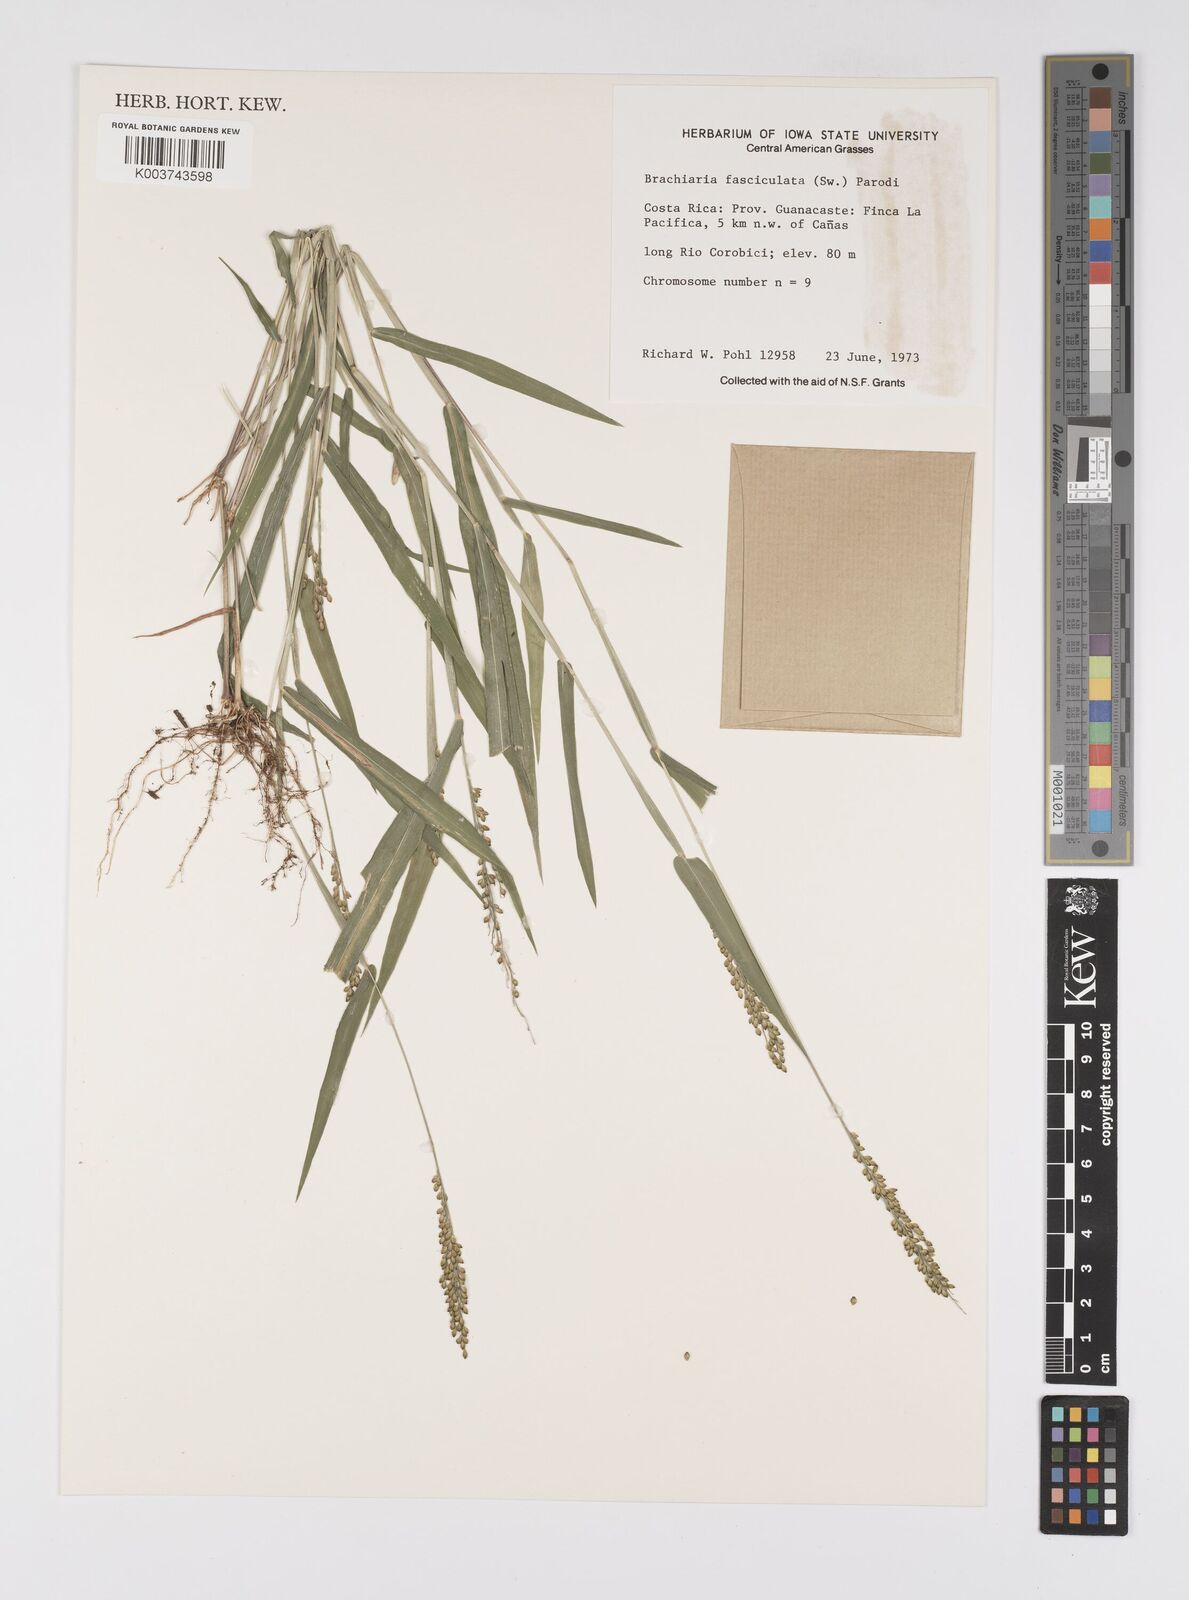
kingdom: Plantae
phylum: Tracheophyta
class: Liliopsida
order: Poales
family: Poaceae
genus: Urochloa
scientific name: Urochloa fusca
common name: Browntop signal grass
